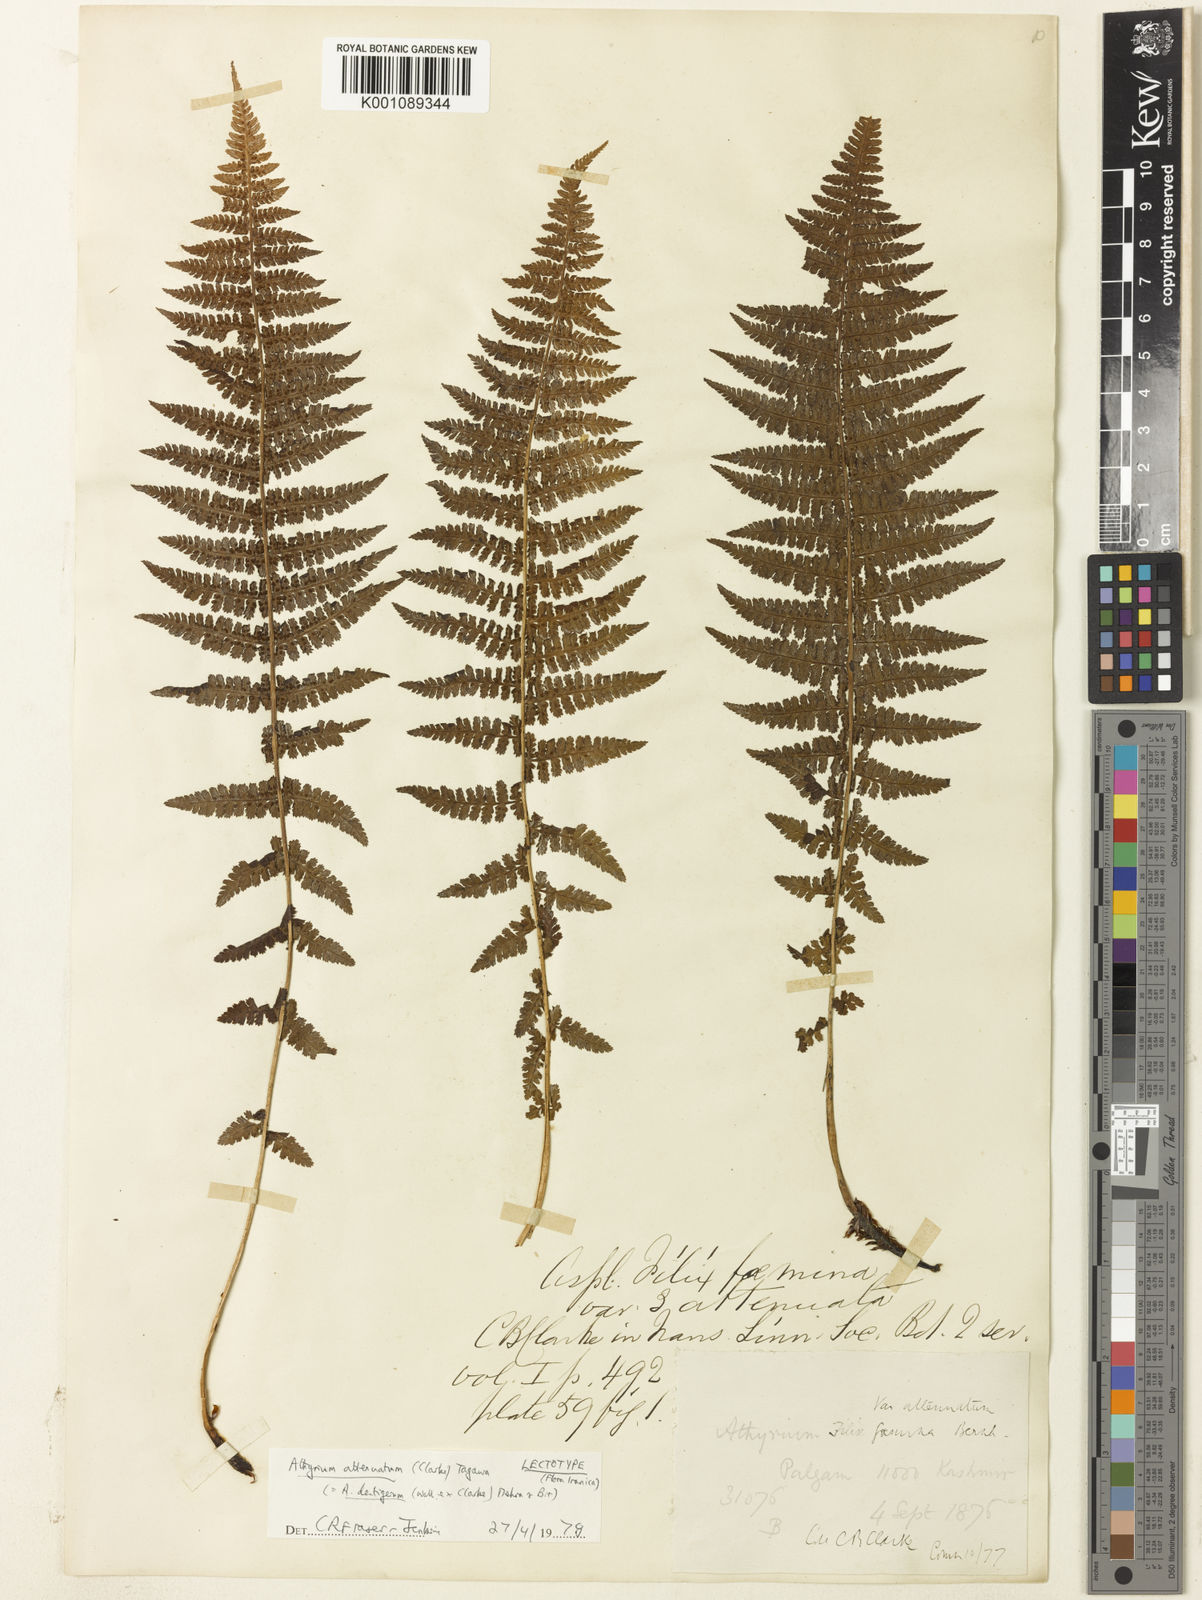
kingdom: Plantae
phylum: Tracheophyta
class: Polypodiopsida
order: Polypodiales
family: Athyriaceae
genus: Athyrium
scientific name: Athyrium
